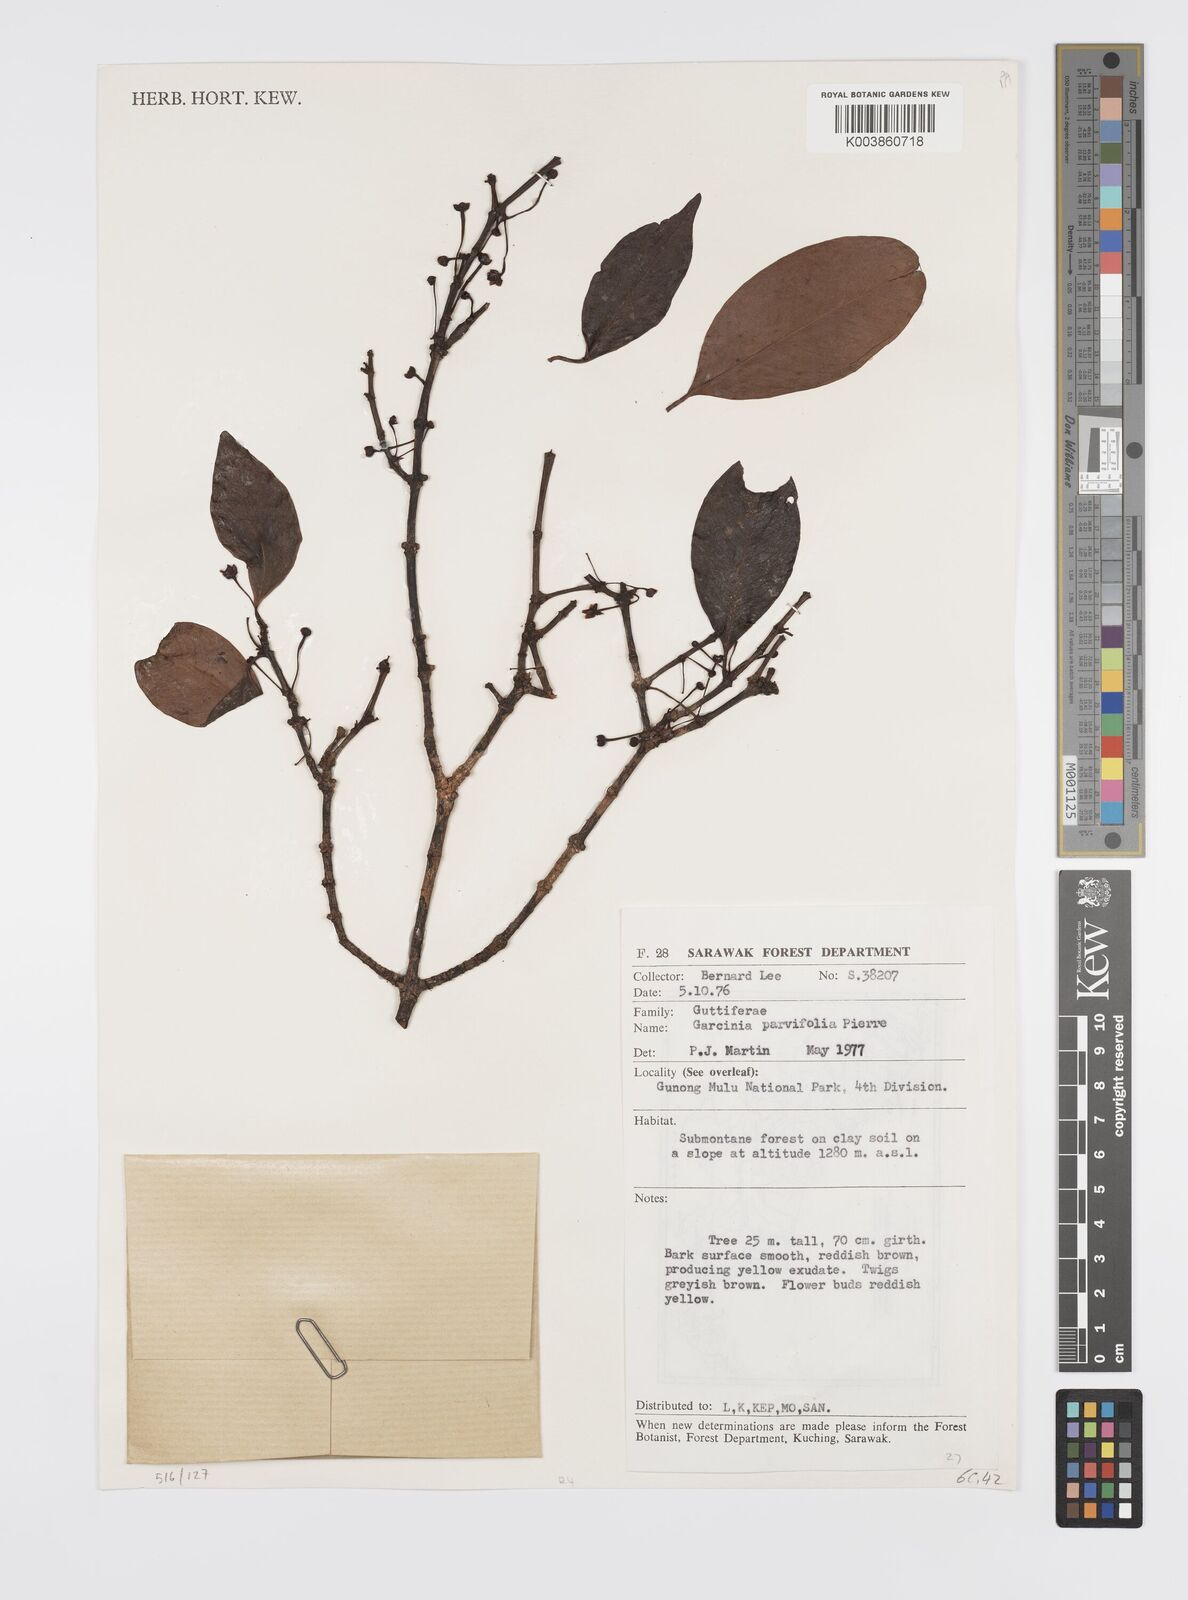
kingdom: Plantae
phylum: Tracheophyta
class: Magnoliopsida
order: Malpighiales
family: Clusiaceae
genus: Garcinia
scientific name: Garcinia parvifolia
